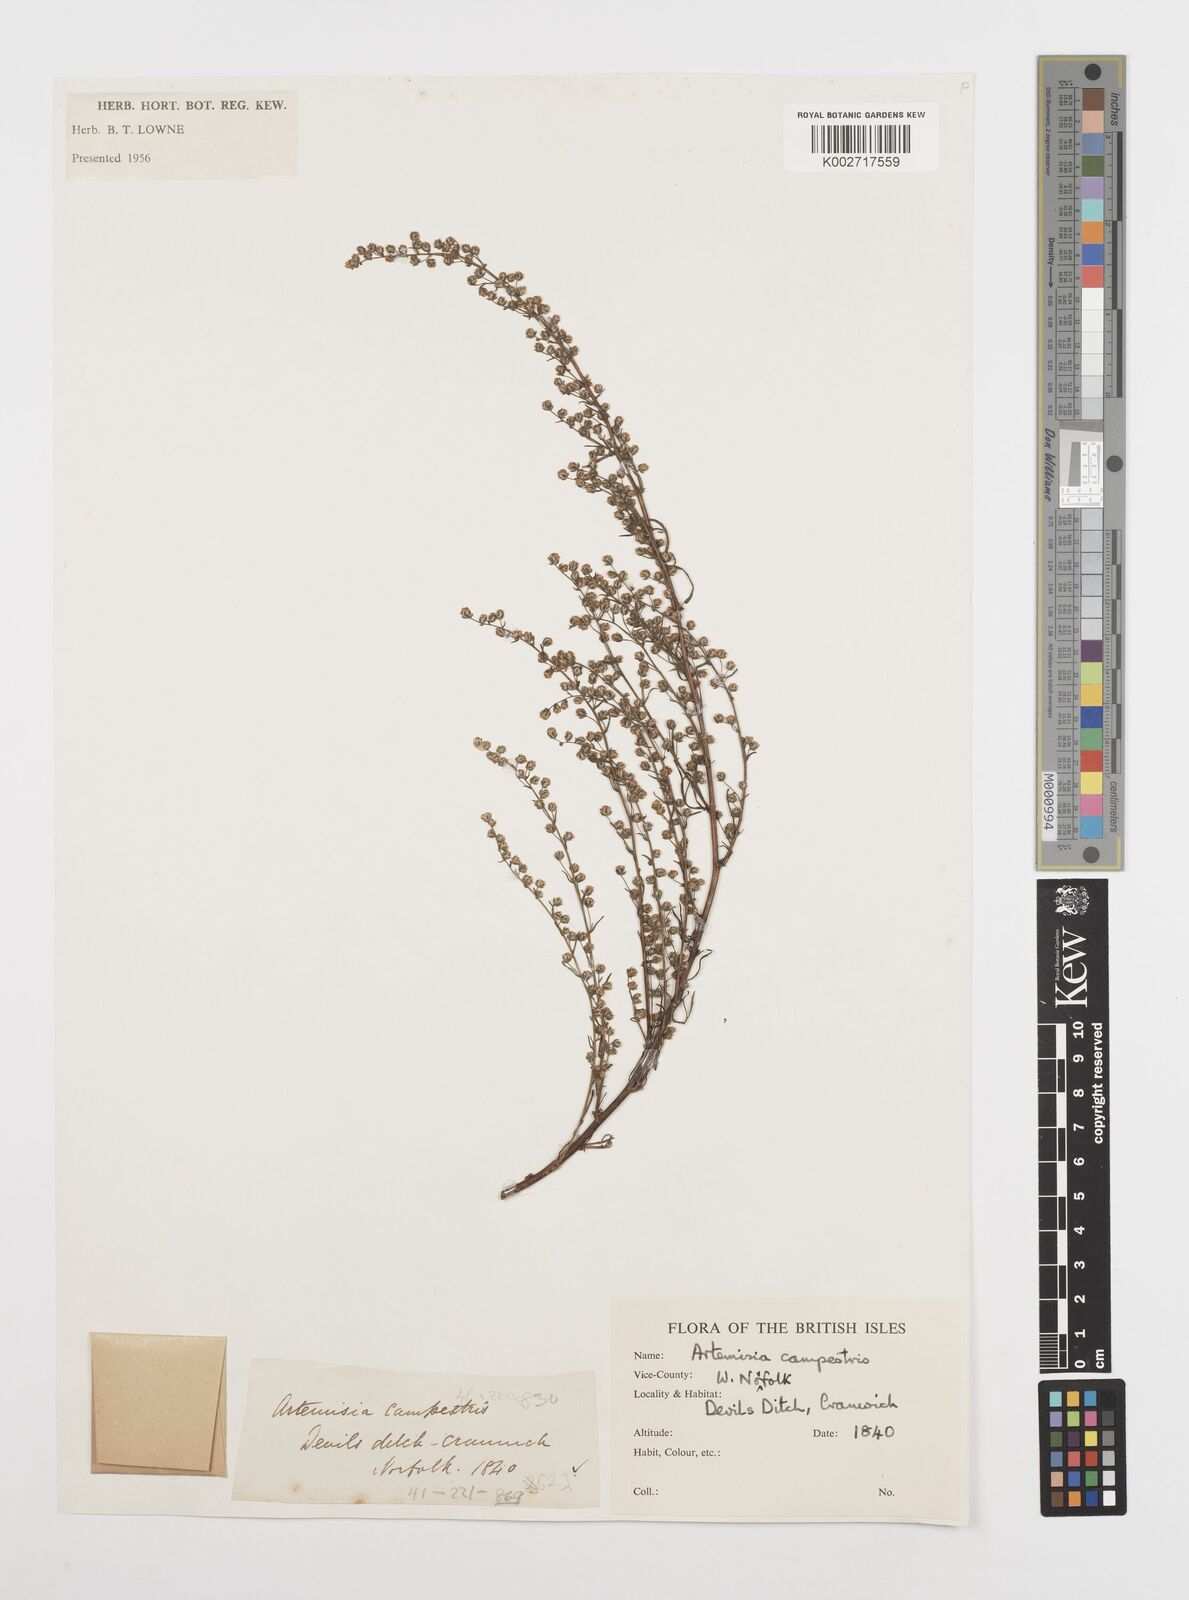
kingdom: Plantae
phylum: Tracheophyta
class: Magnoliopsida
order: Asterales
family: Asteraceae
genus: Artemisia
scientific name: Artemisia campestris
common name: Field wormwood
